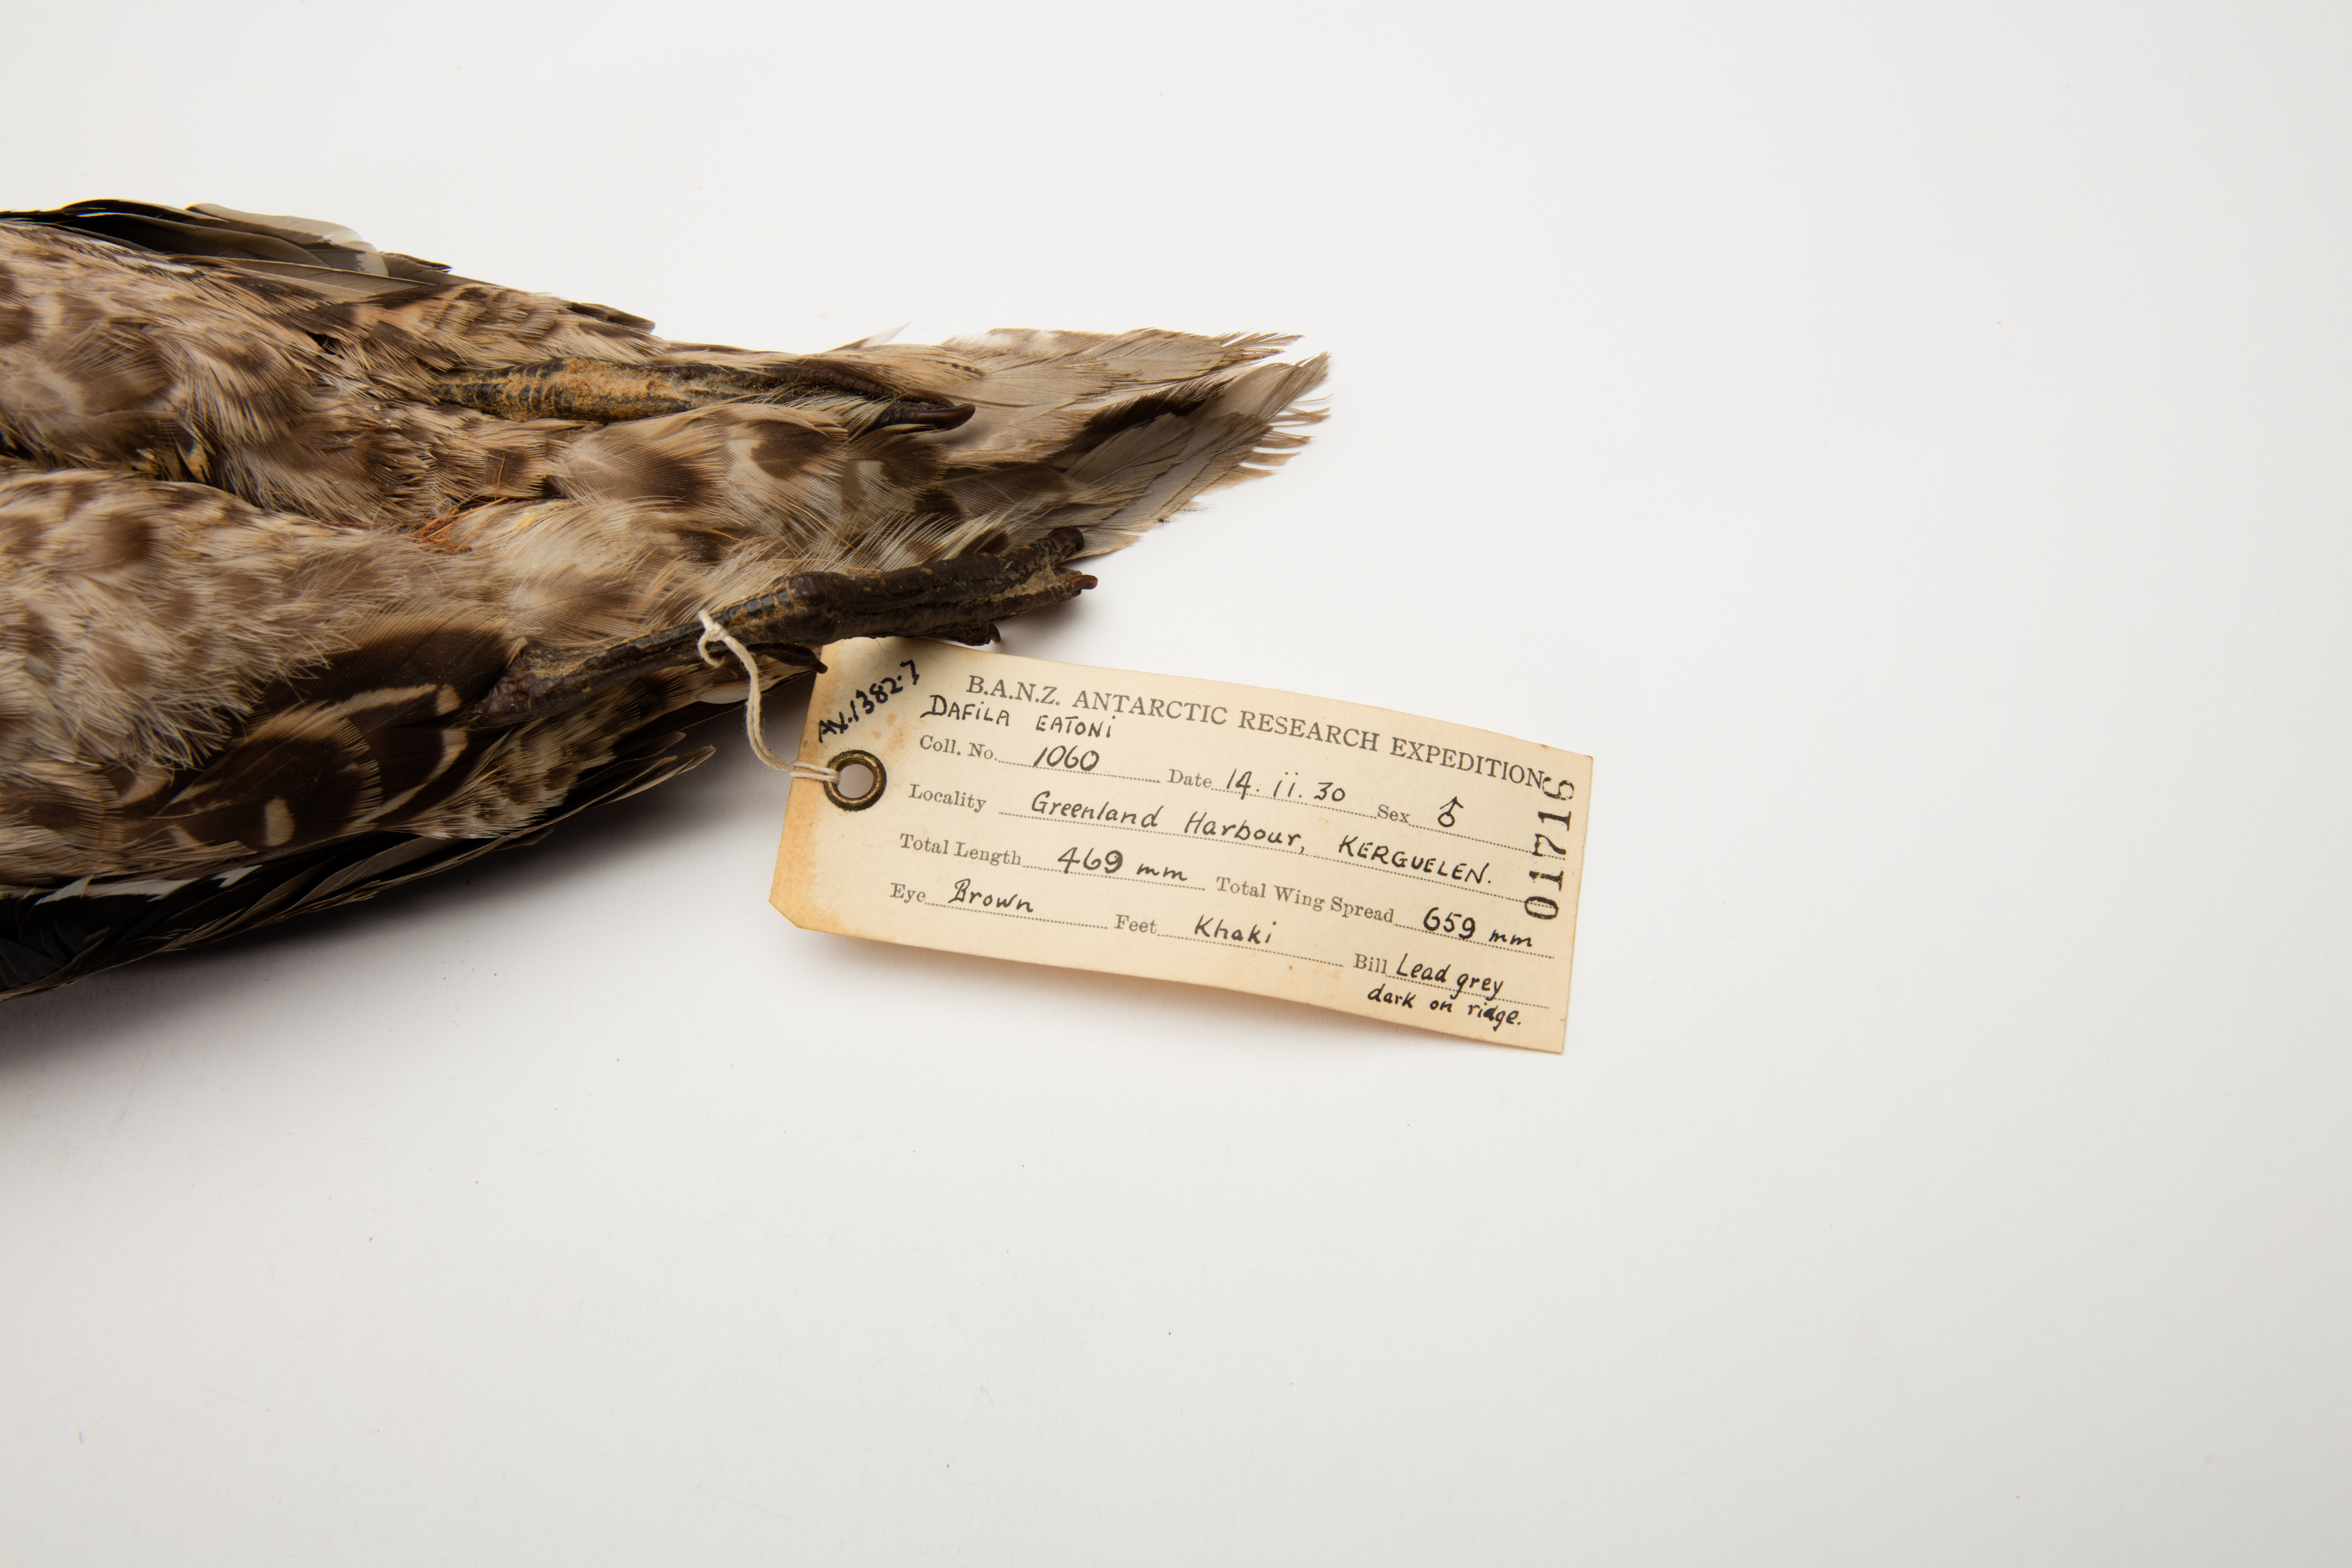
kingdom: Animalia
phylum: Chordata
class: Aves
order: Anseriformes
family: Anatidae
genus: Anas
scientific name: Anas eatoni
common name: Eaton's pintail
